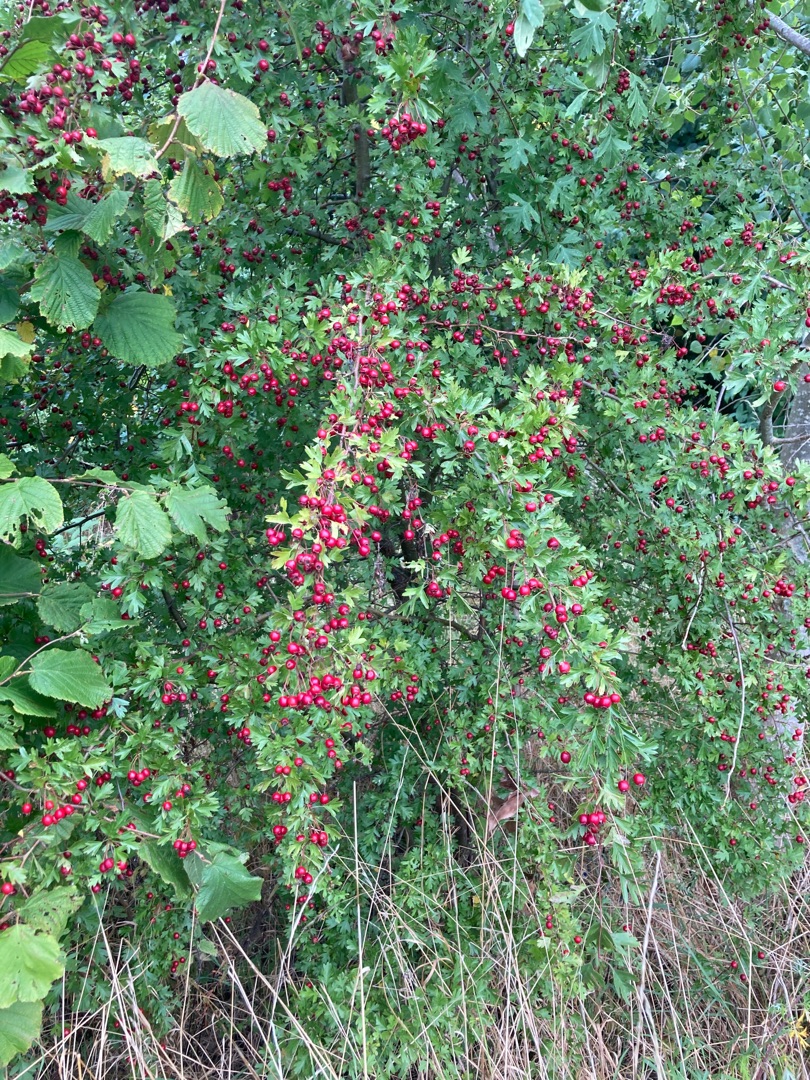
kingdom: Plantae
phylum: Tracheophyta
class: Magnoliopsida
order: Rosales
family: Rosaceae
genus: Crataegus
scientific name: Crataegus monogyna
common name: Engriflet hvidtjørn
